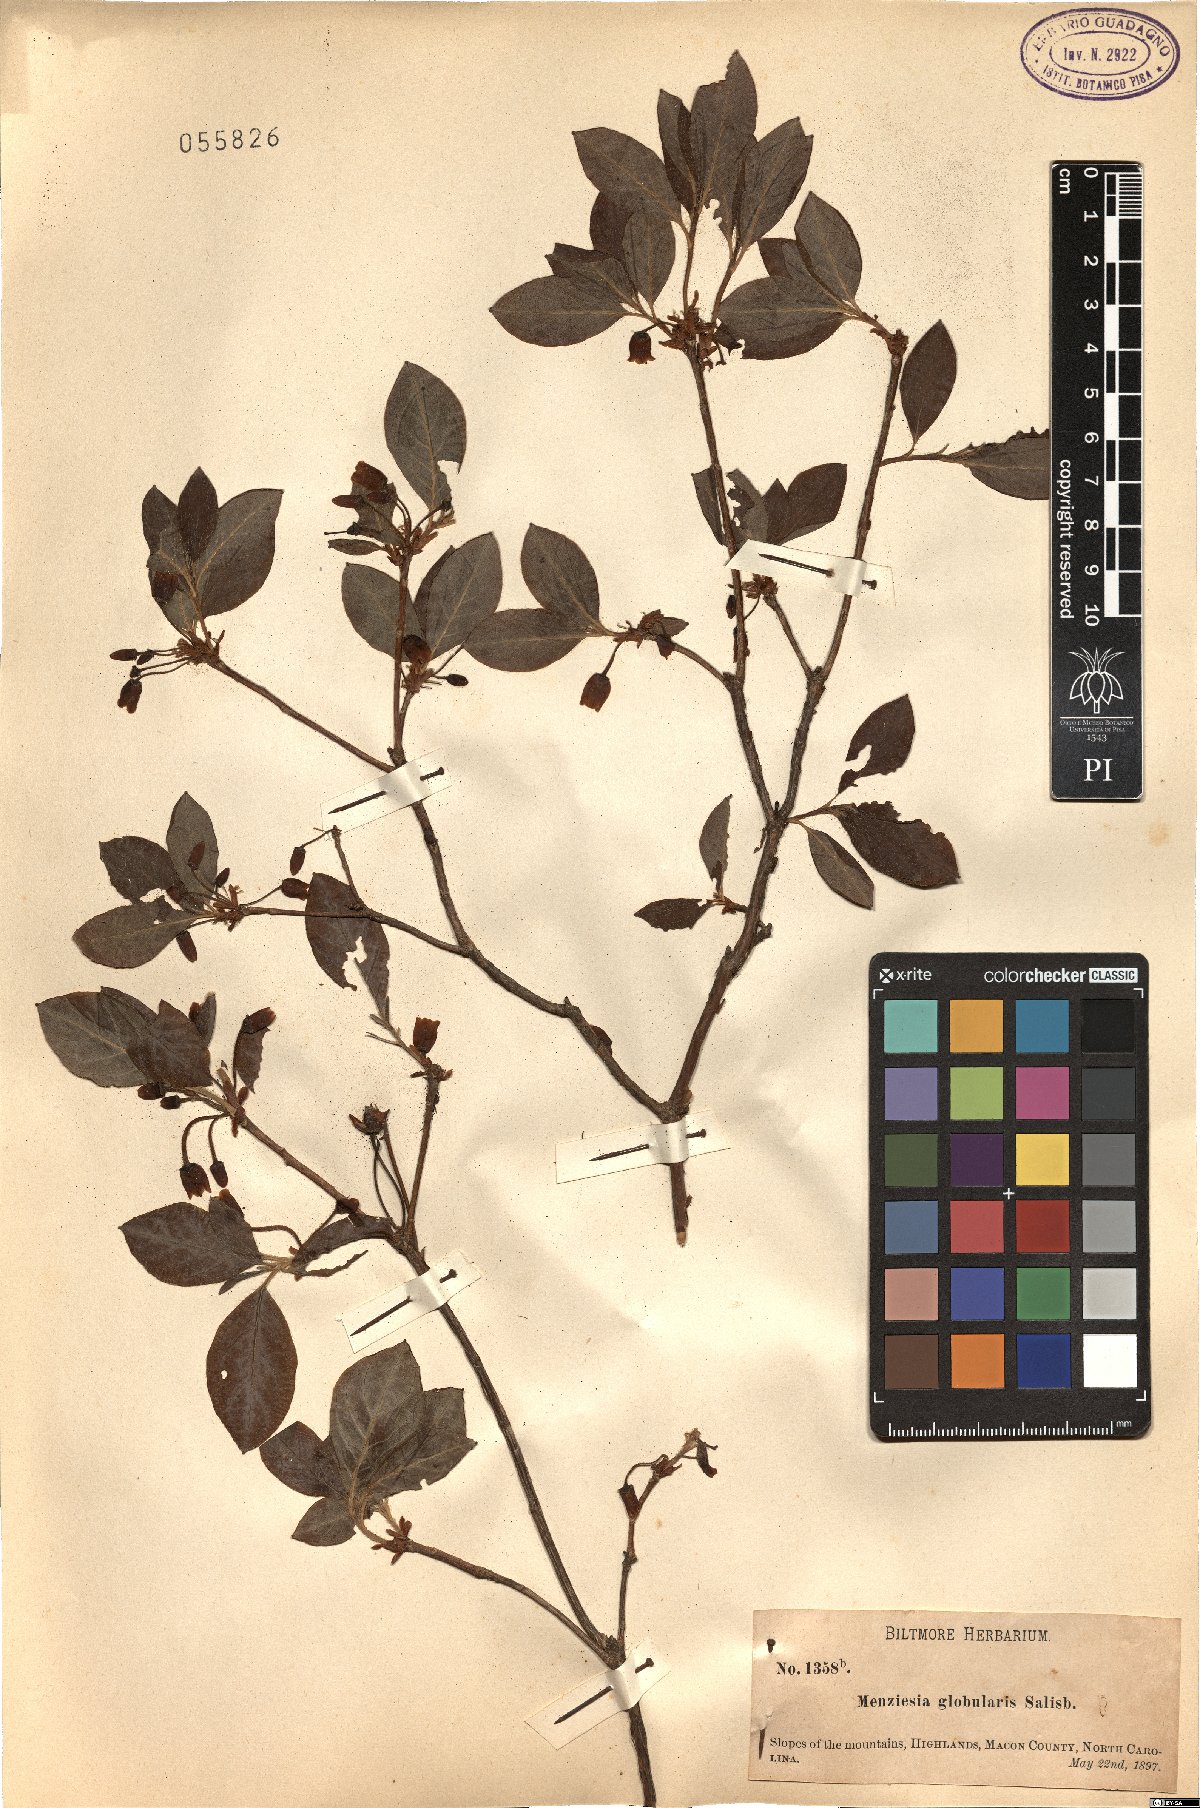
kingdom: Plantae
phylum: Tracheophyta
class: Magnoliopsida
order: Ericales
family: Ericaceae
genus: Rhododendron
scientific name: Rhododendron pilosum
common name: Hairy minniebush
